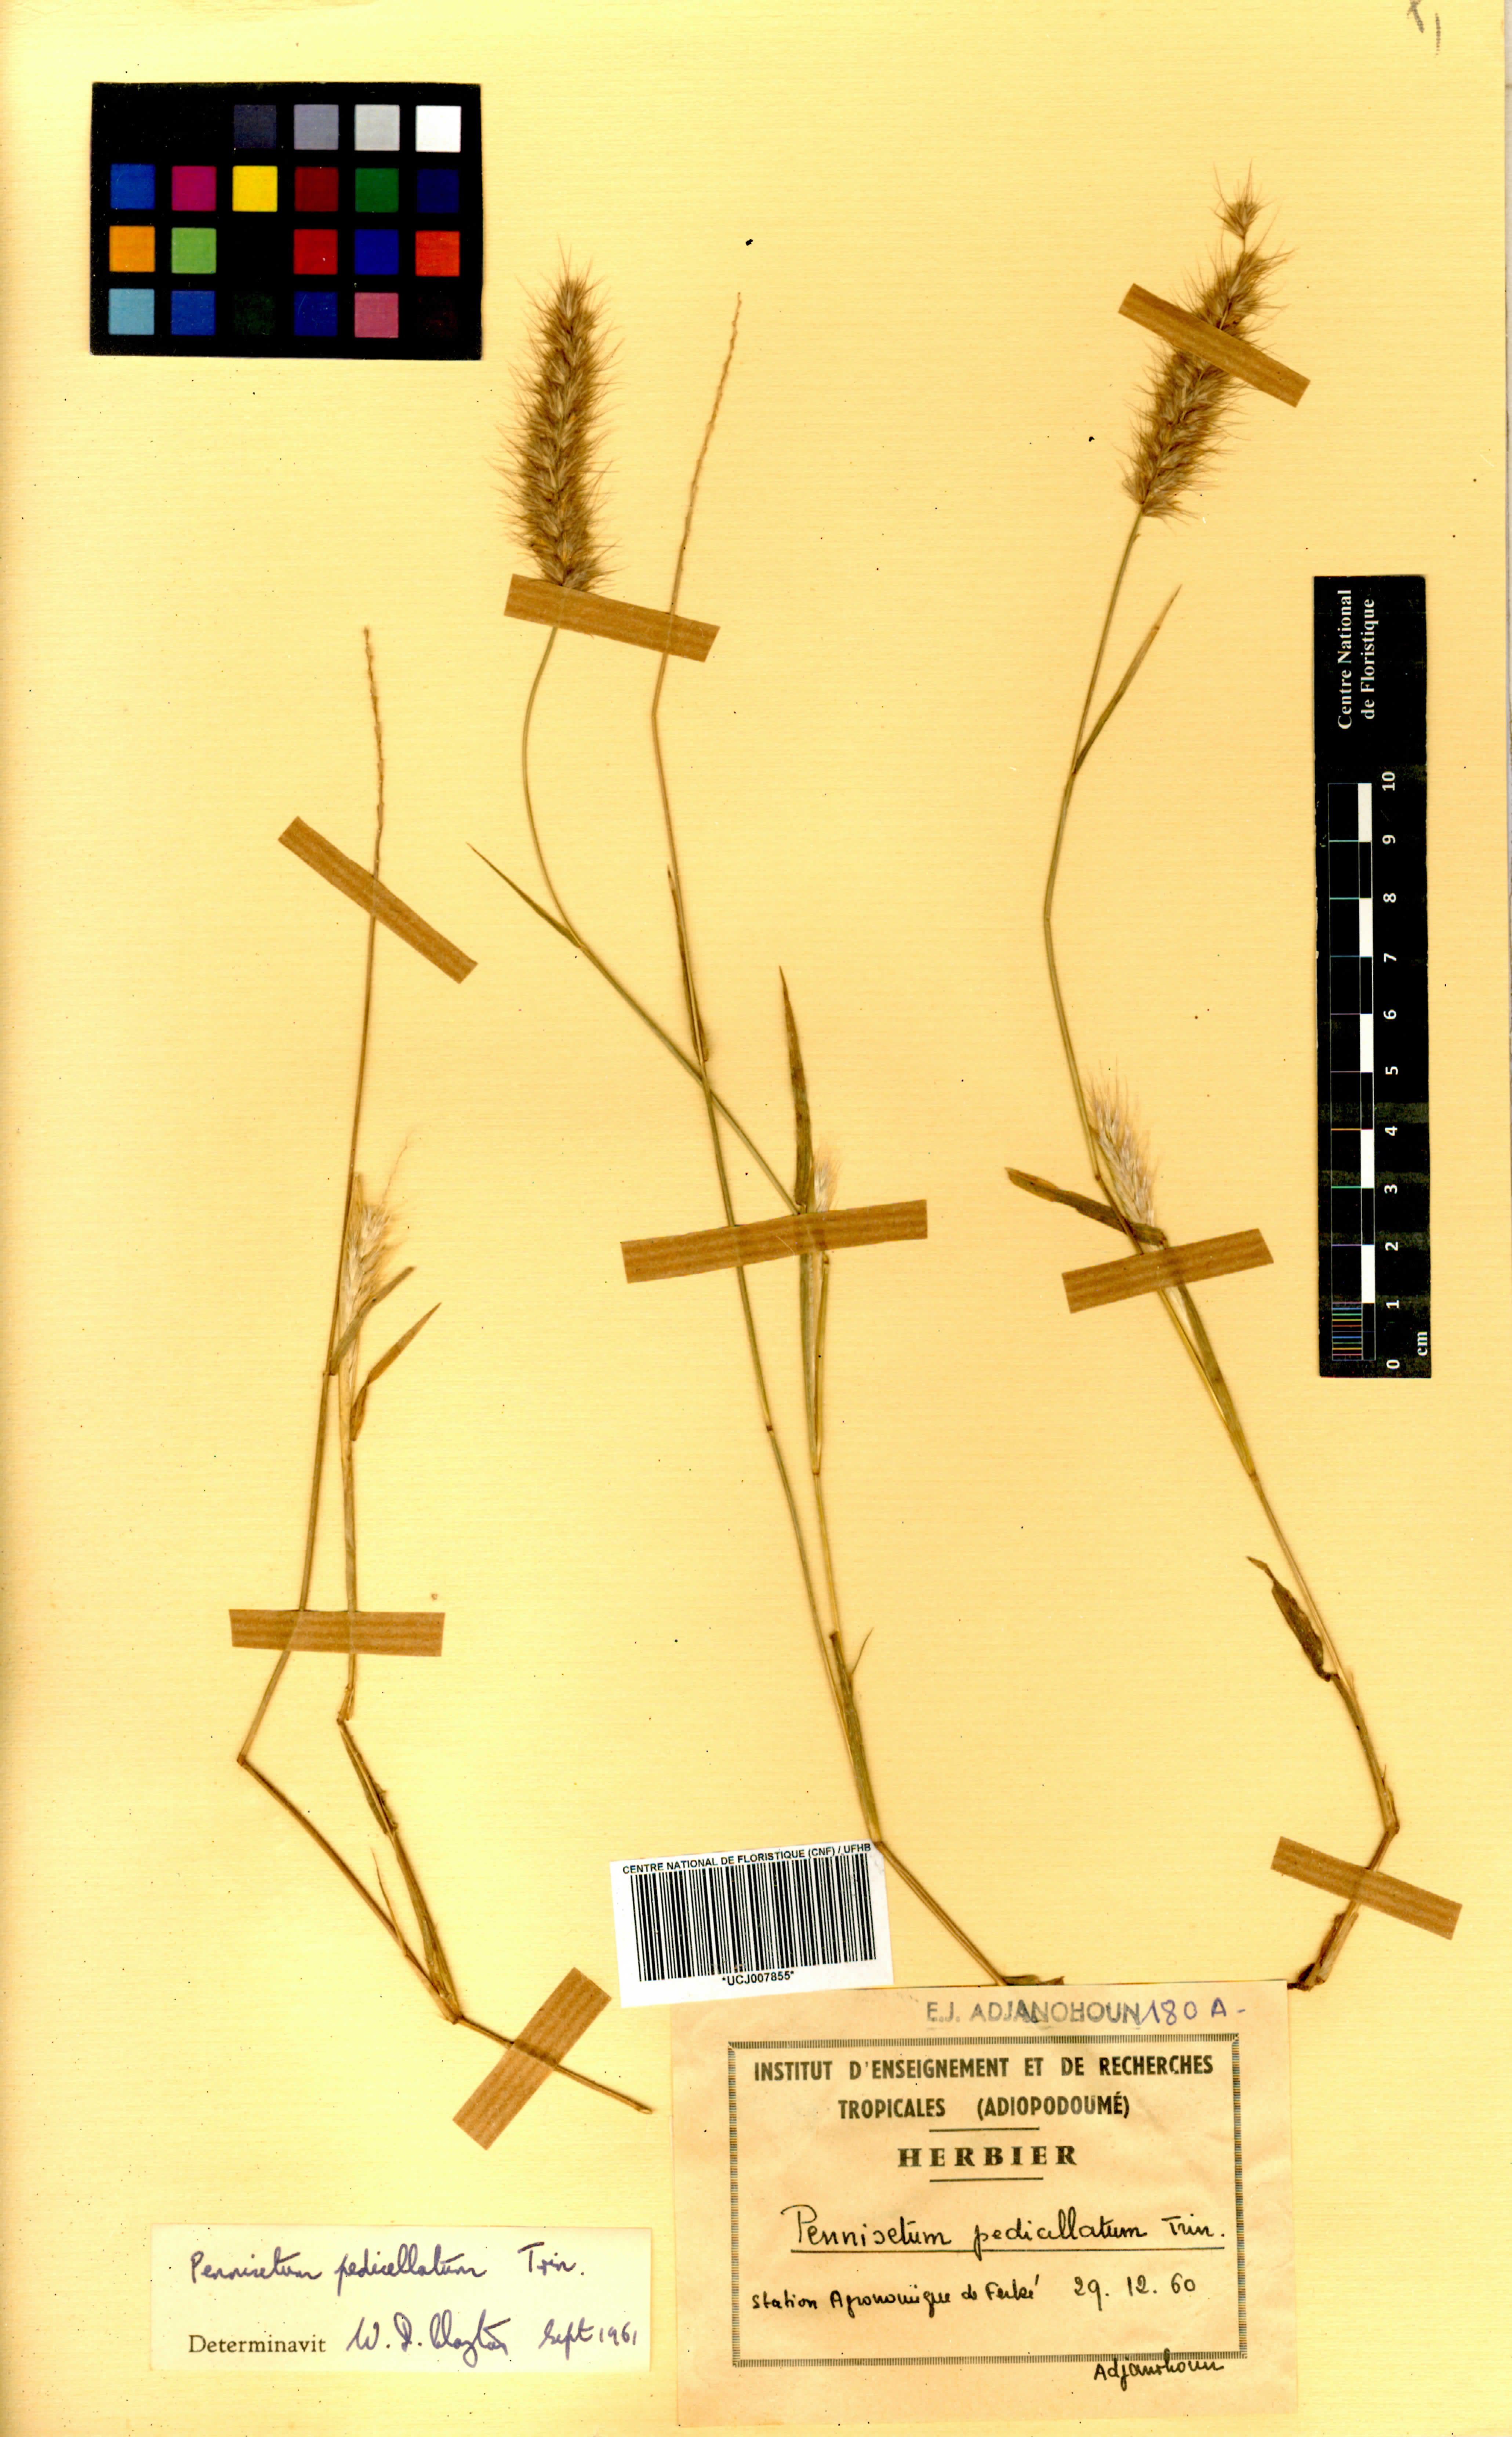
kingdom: Plantae
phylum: Tracheophyta
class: Liliopsida
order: Poales
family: Poaceae
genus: Cenchrus
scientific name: Cenchrus pedicellatus
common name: Hairy fountain grass
